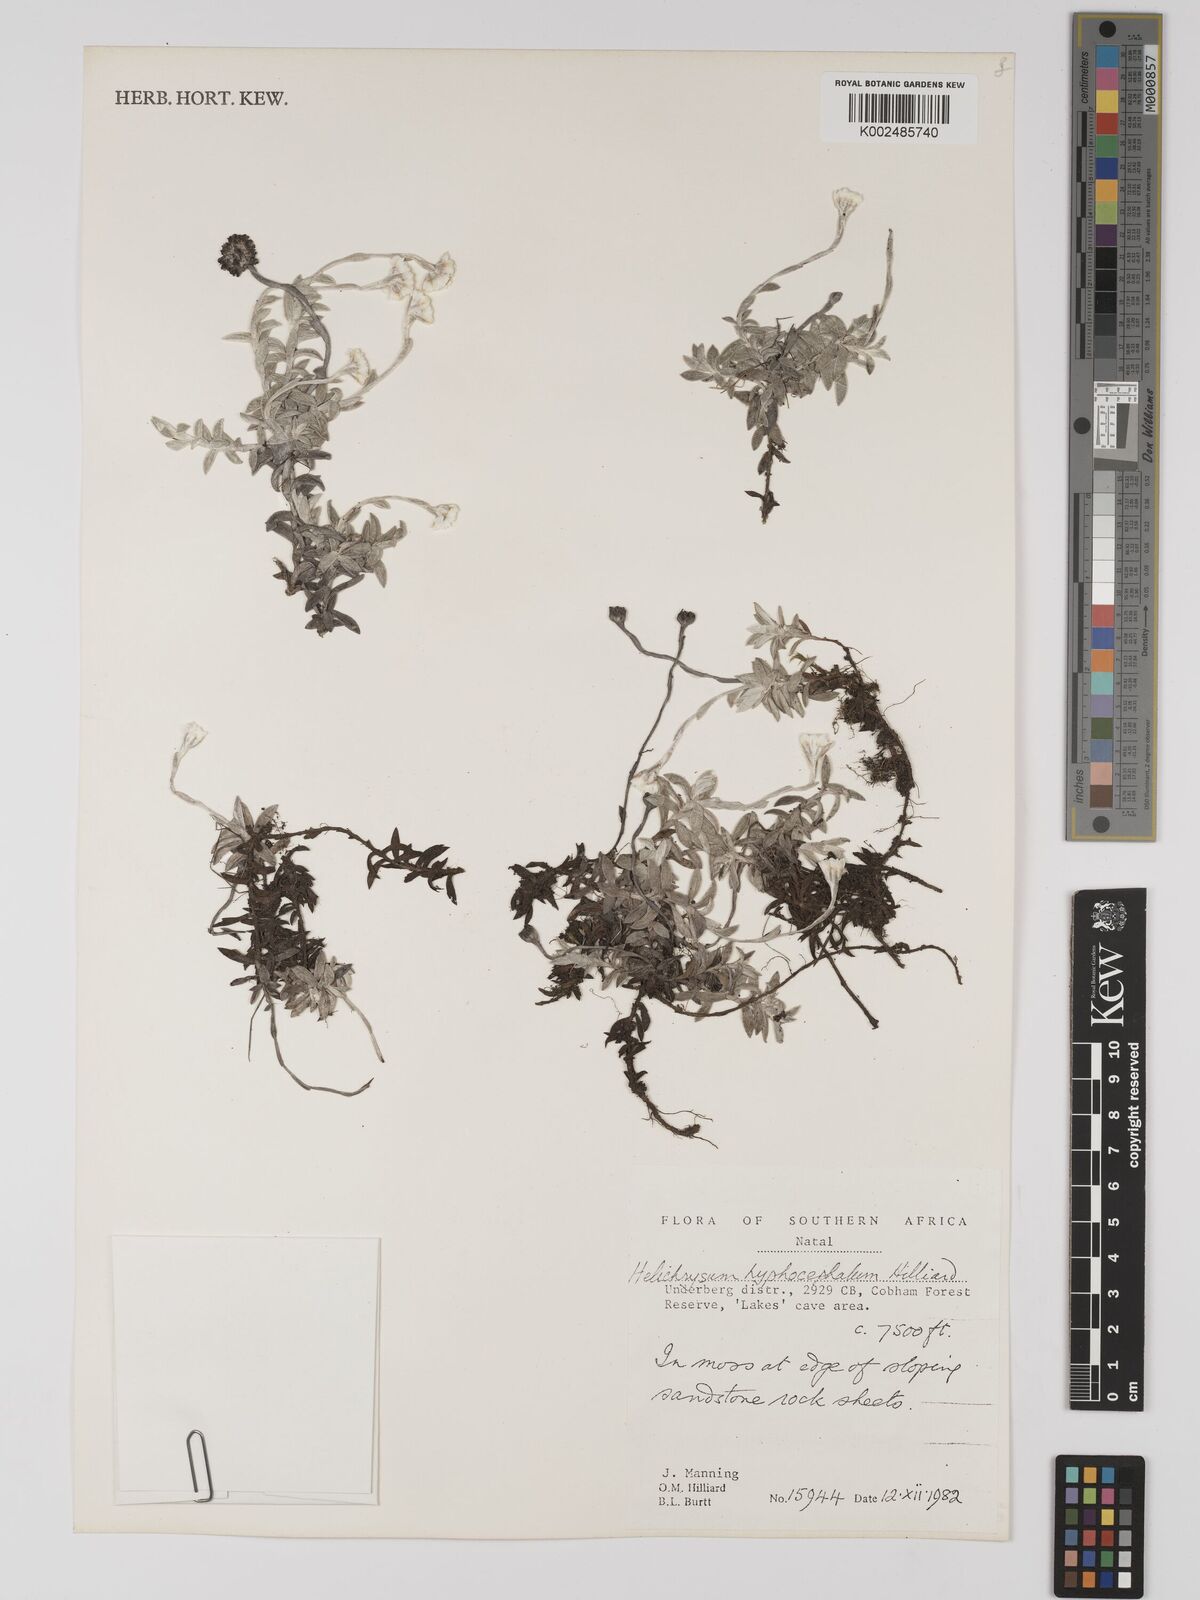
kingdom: Plantae
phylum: Tracheophyta
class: Magnoliopsida
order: Asterales
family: Asteraceae
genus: Helichrysum
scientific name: Helichrysum hyphocephalum
